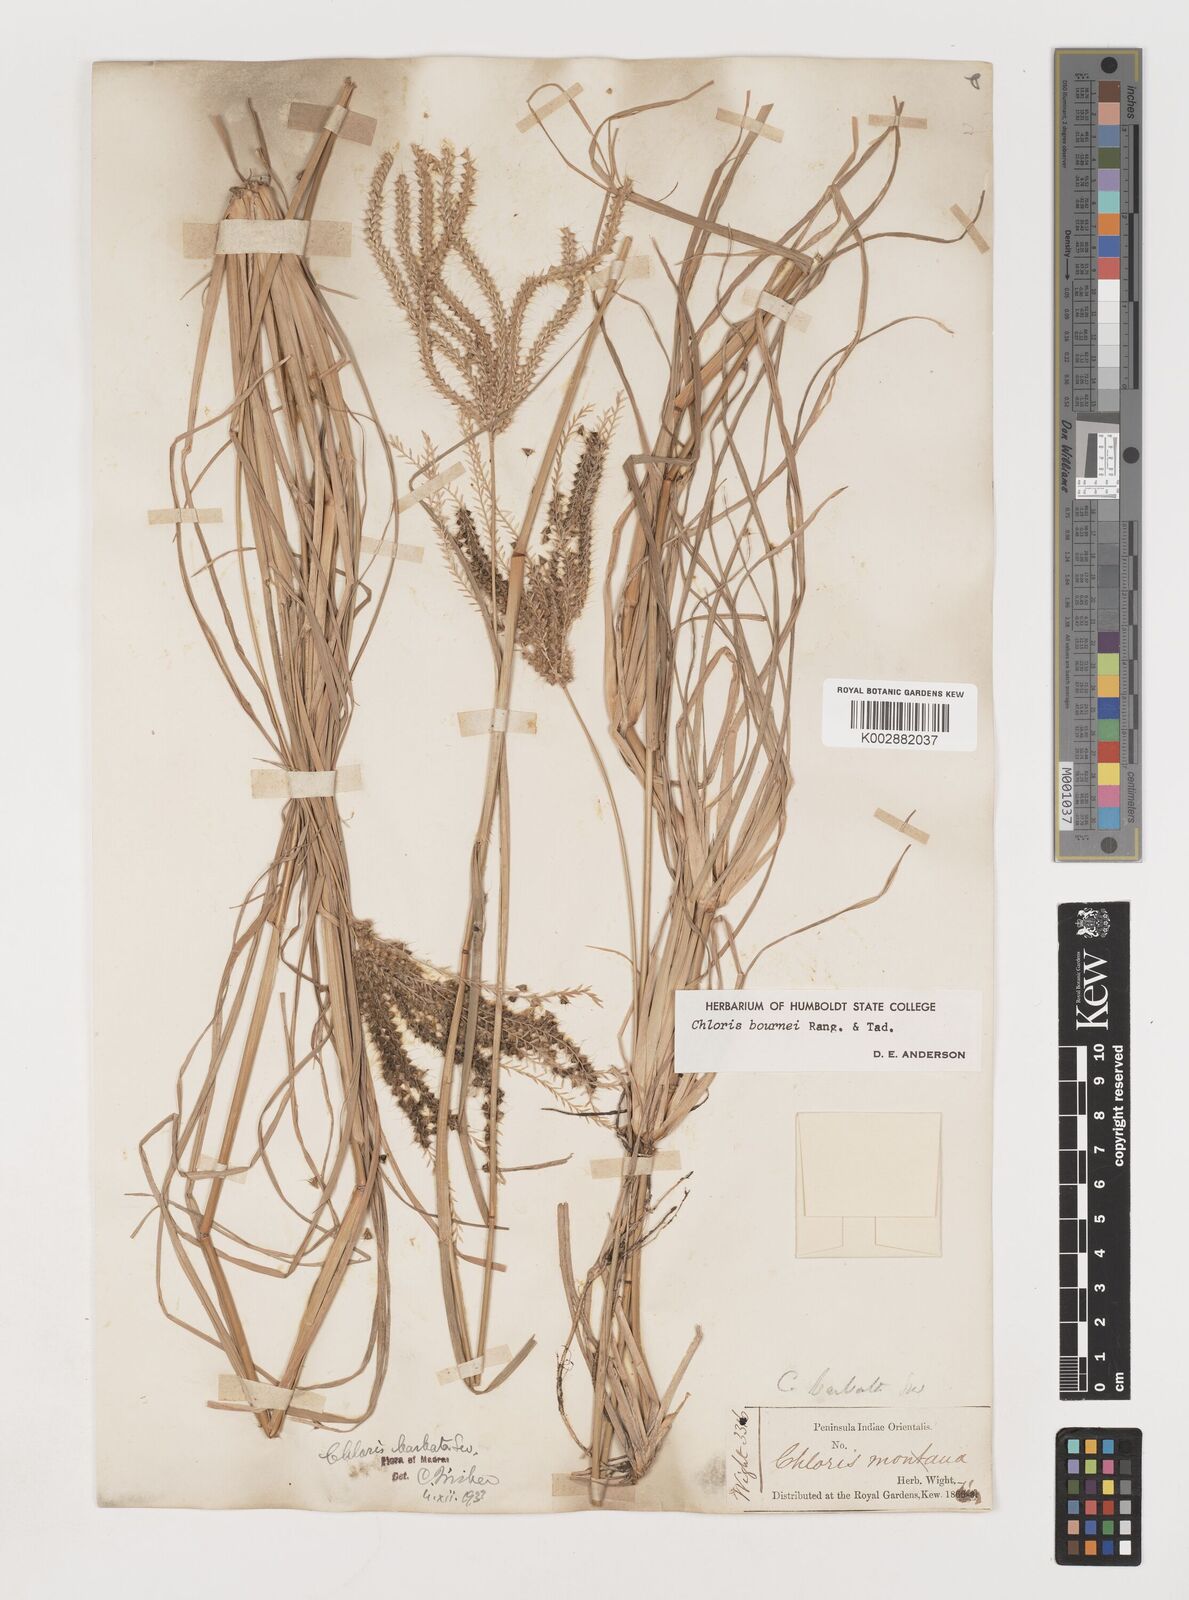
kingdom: Plantae
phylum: Tracheophyta
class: Liliopsida
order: Poales
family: Poaceae
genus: Chloris
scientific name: Chloris bournei
